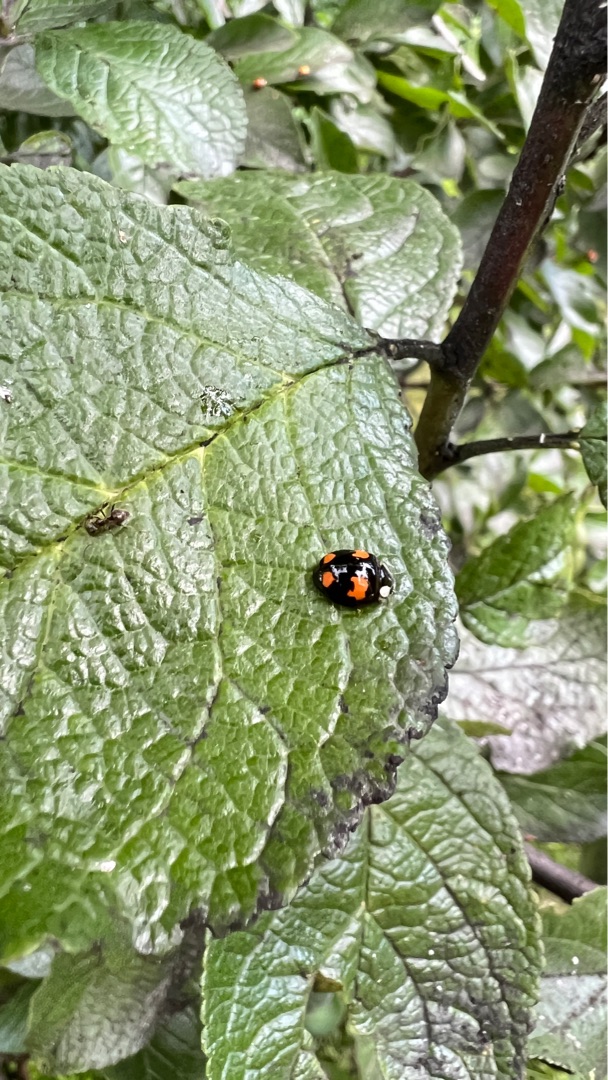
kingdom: Animalia
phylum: Arthropoda
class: Insecta
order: Coleoptera
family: Coccinellidae
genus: Harmonia
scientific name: Harmonia axyridis
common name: Harlekinmariehøne
